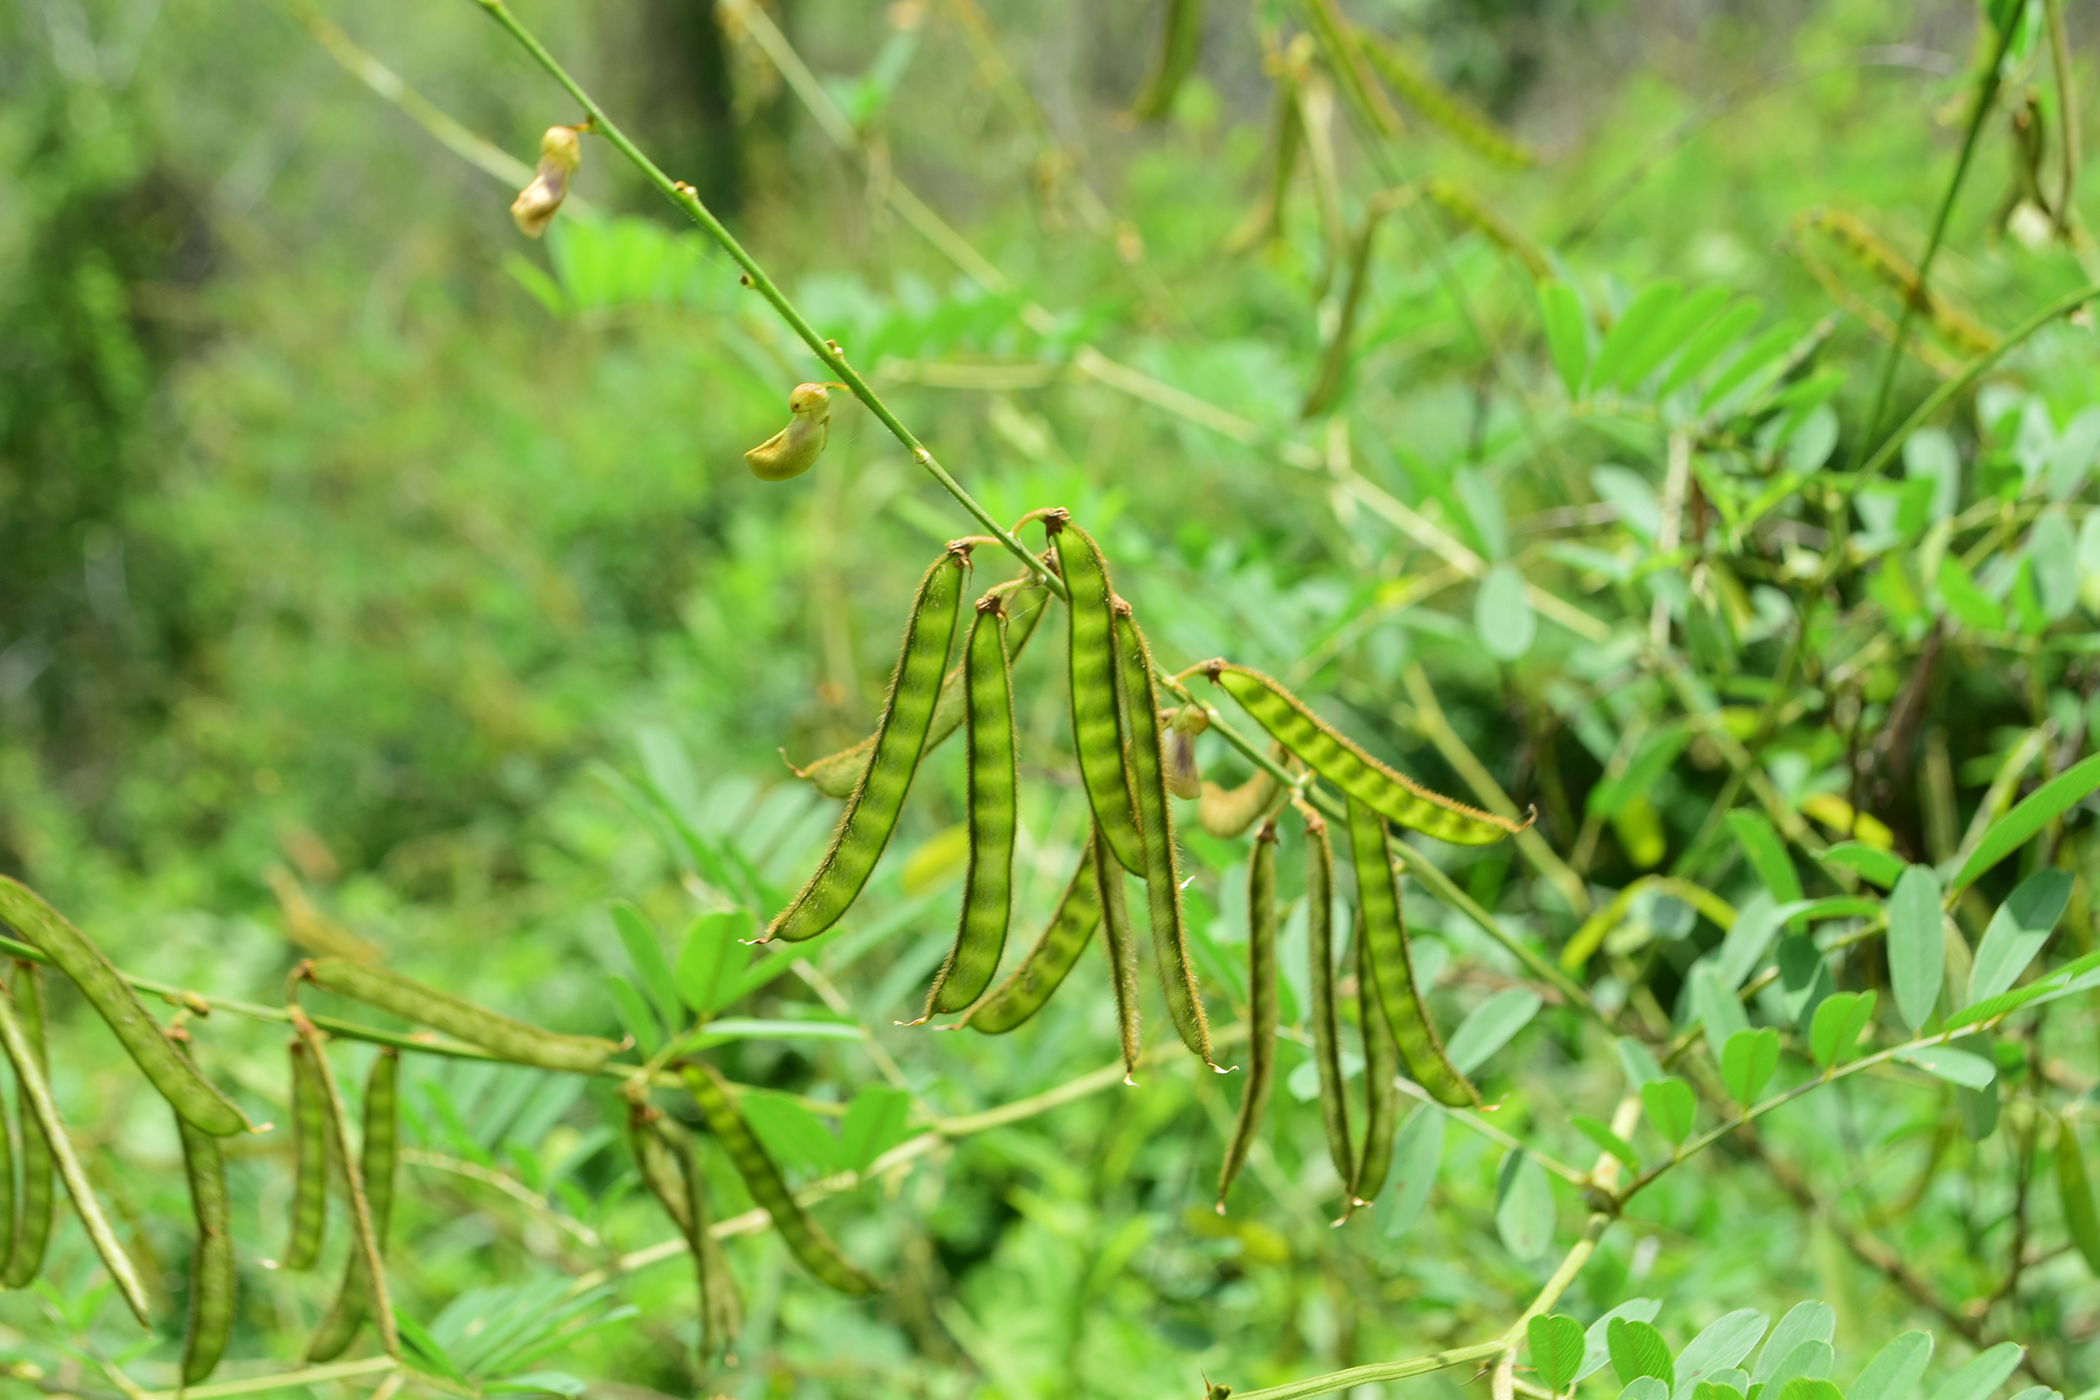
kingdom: Plantae
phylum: Tracheophyta
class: Magnoliopsida
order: Fabales
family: Fabaceae
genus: Tephrosia
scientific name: Tephrosia noctiflora
